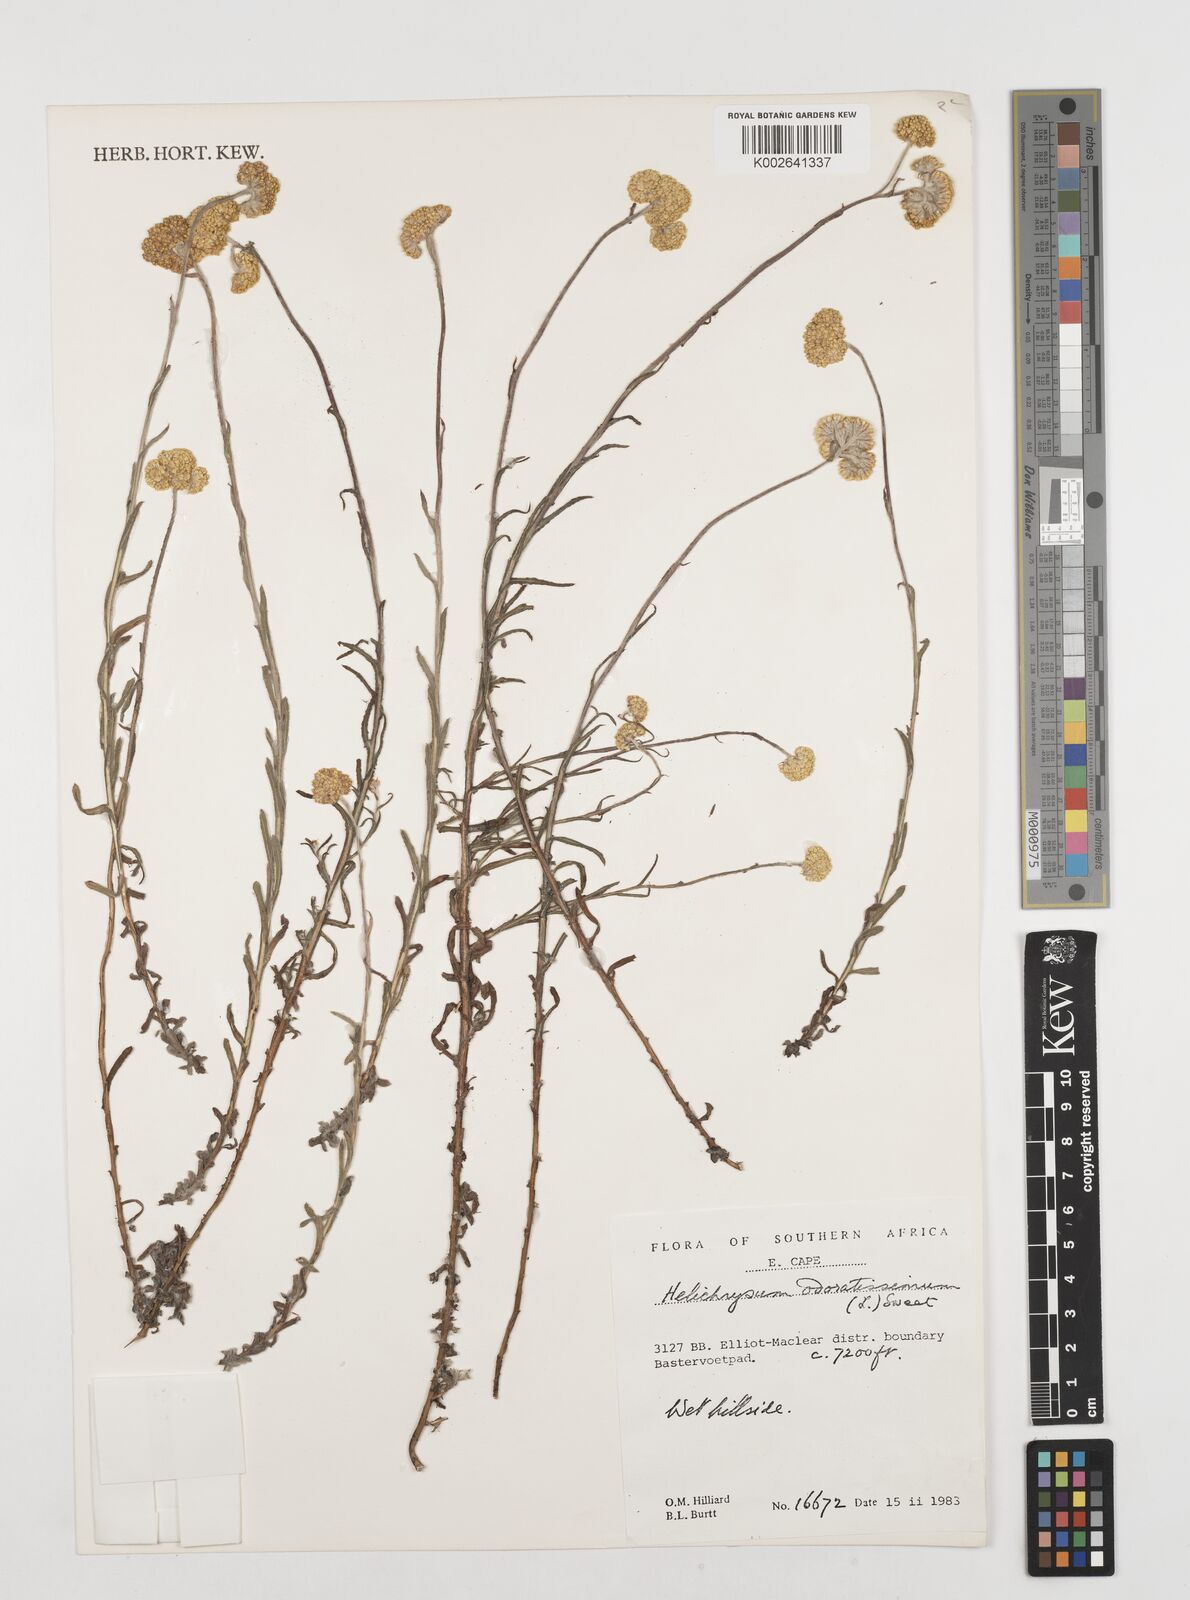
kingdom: Plantae
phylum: Tracheophyta
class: Magnoliopsida
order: Asterales
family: Asteraceae
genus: Helichrysum
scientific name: Helichrysum odoratissimum
